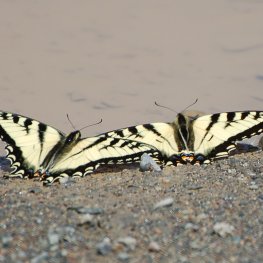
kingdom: Animalia
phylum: Arthropoda
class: Insecta
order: Lepidoptera
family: Papilionidae
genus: Pterourus
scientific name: Pterourus canadensis
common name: Canadian Tiger Swallowtail
